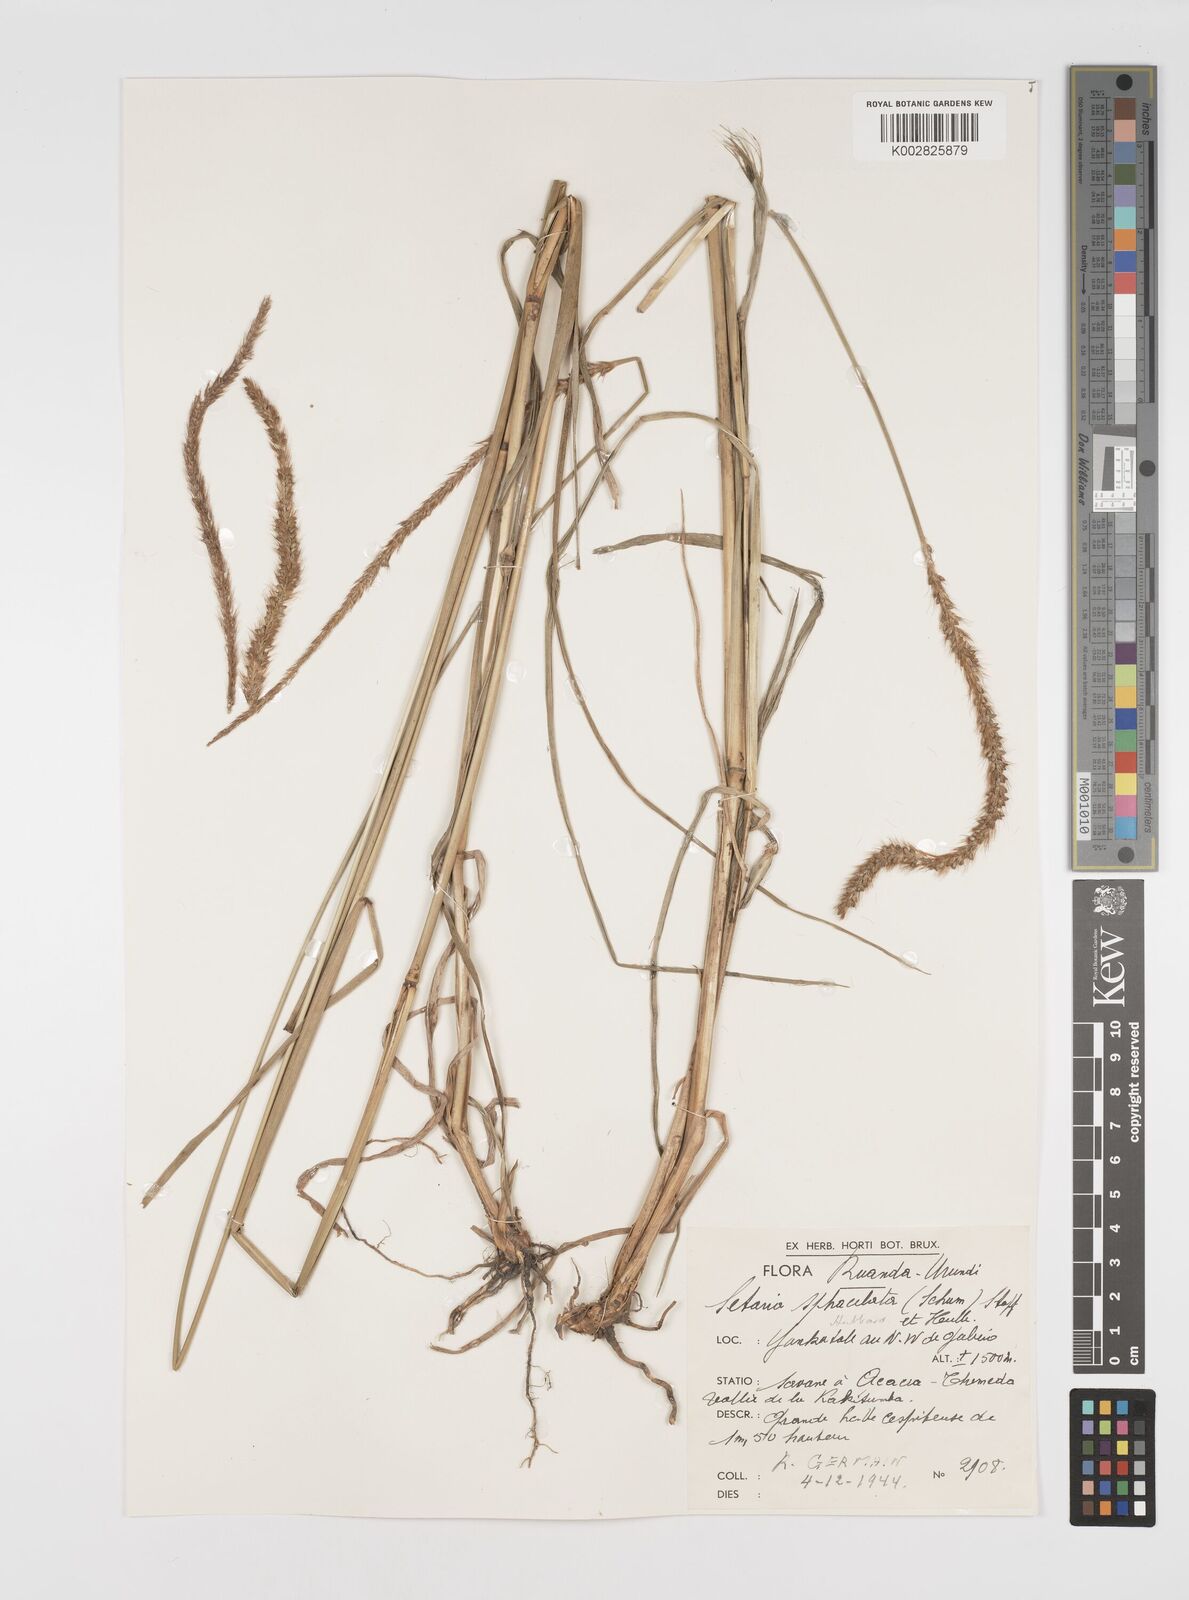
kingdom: Plantae
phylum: Tracheophyta
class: Liliopsida
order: Poales
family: Poaceae
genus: Setaria
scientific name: Setaria sphacelata
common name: African bristlegrass
